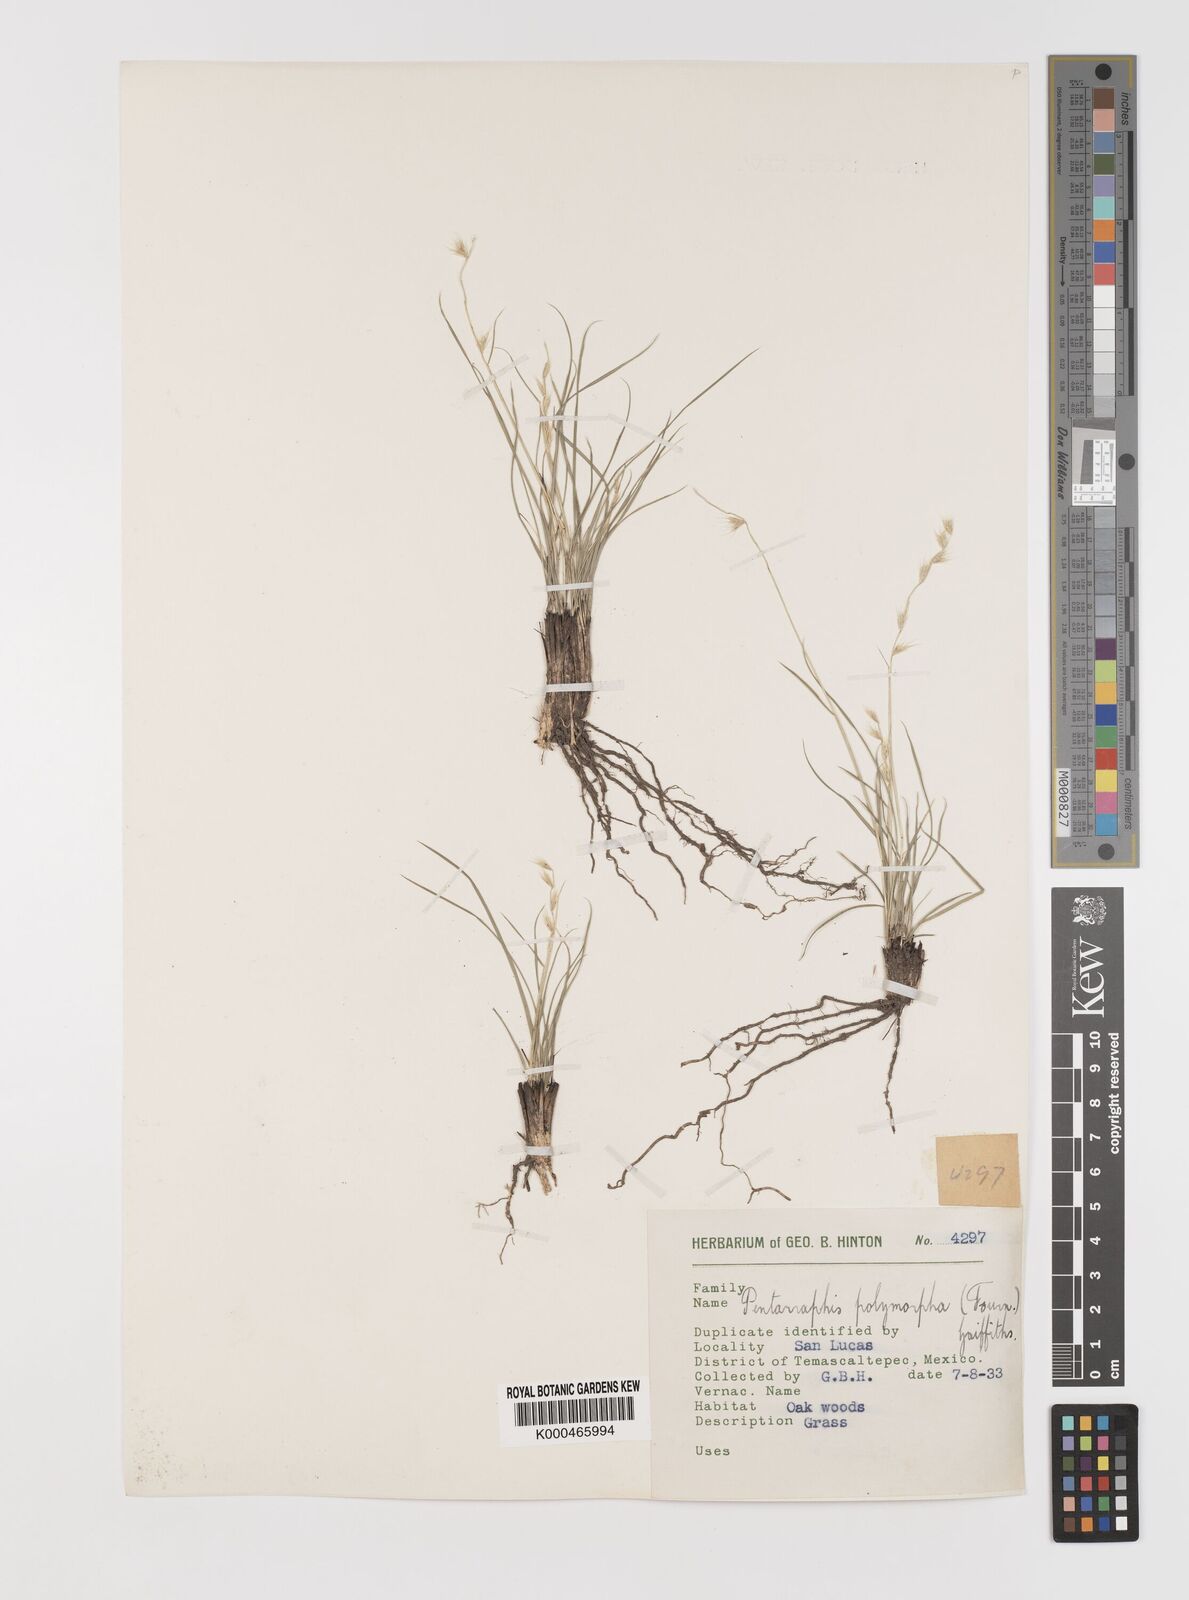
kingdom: Plantae
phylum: Tracheophyta
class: Liliopsida
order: Poales
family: Poaceae
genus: Bouteloua
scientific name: Bouteloua polymorpha
